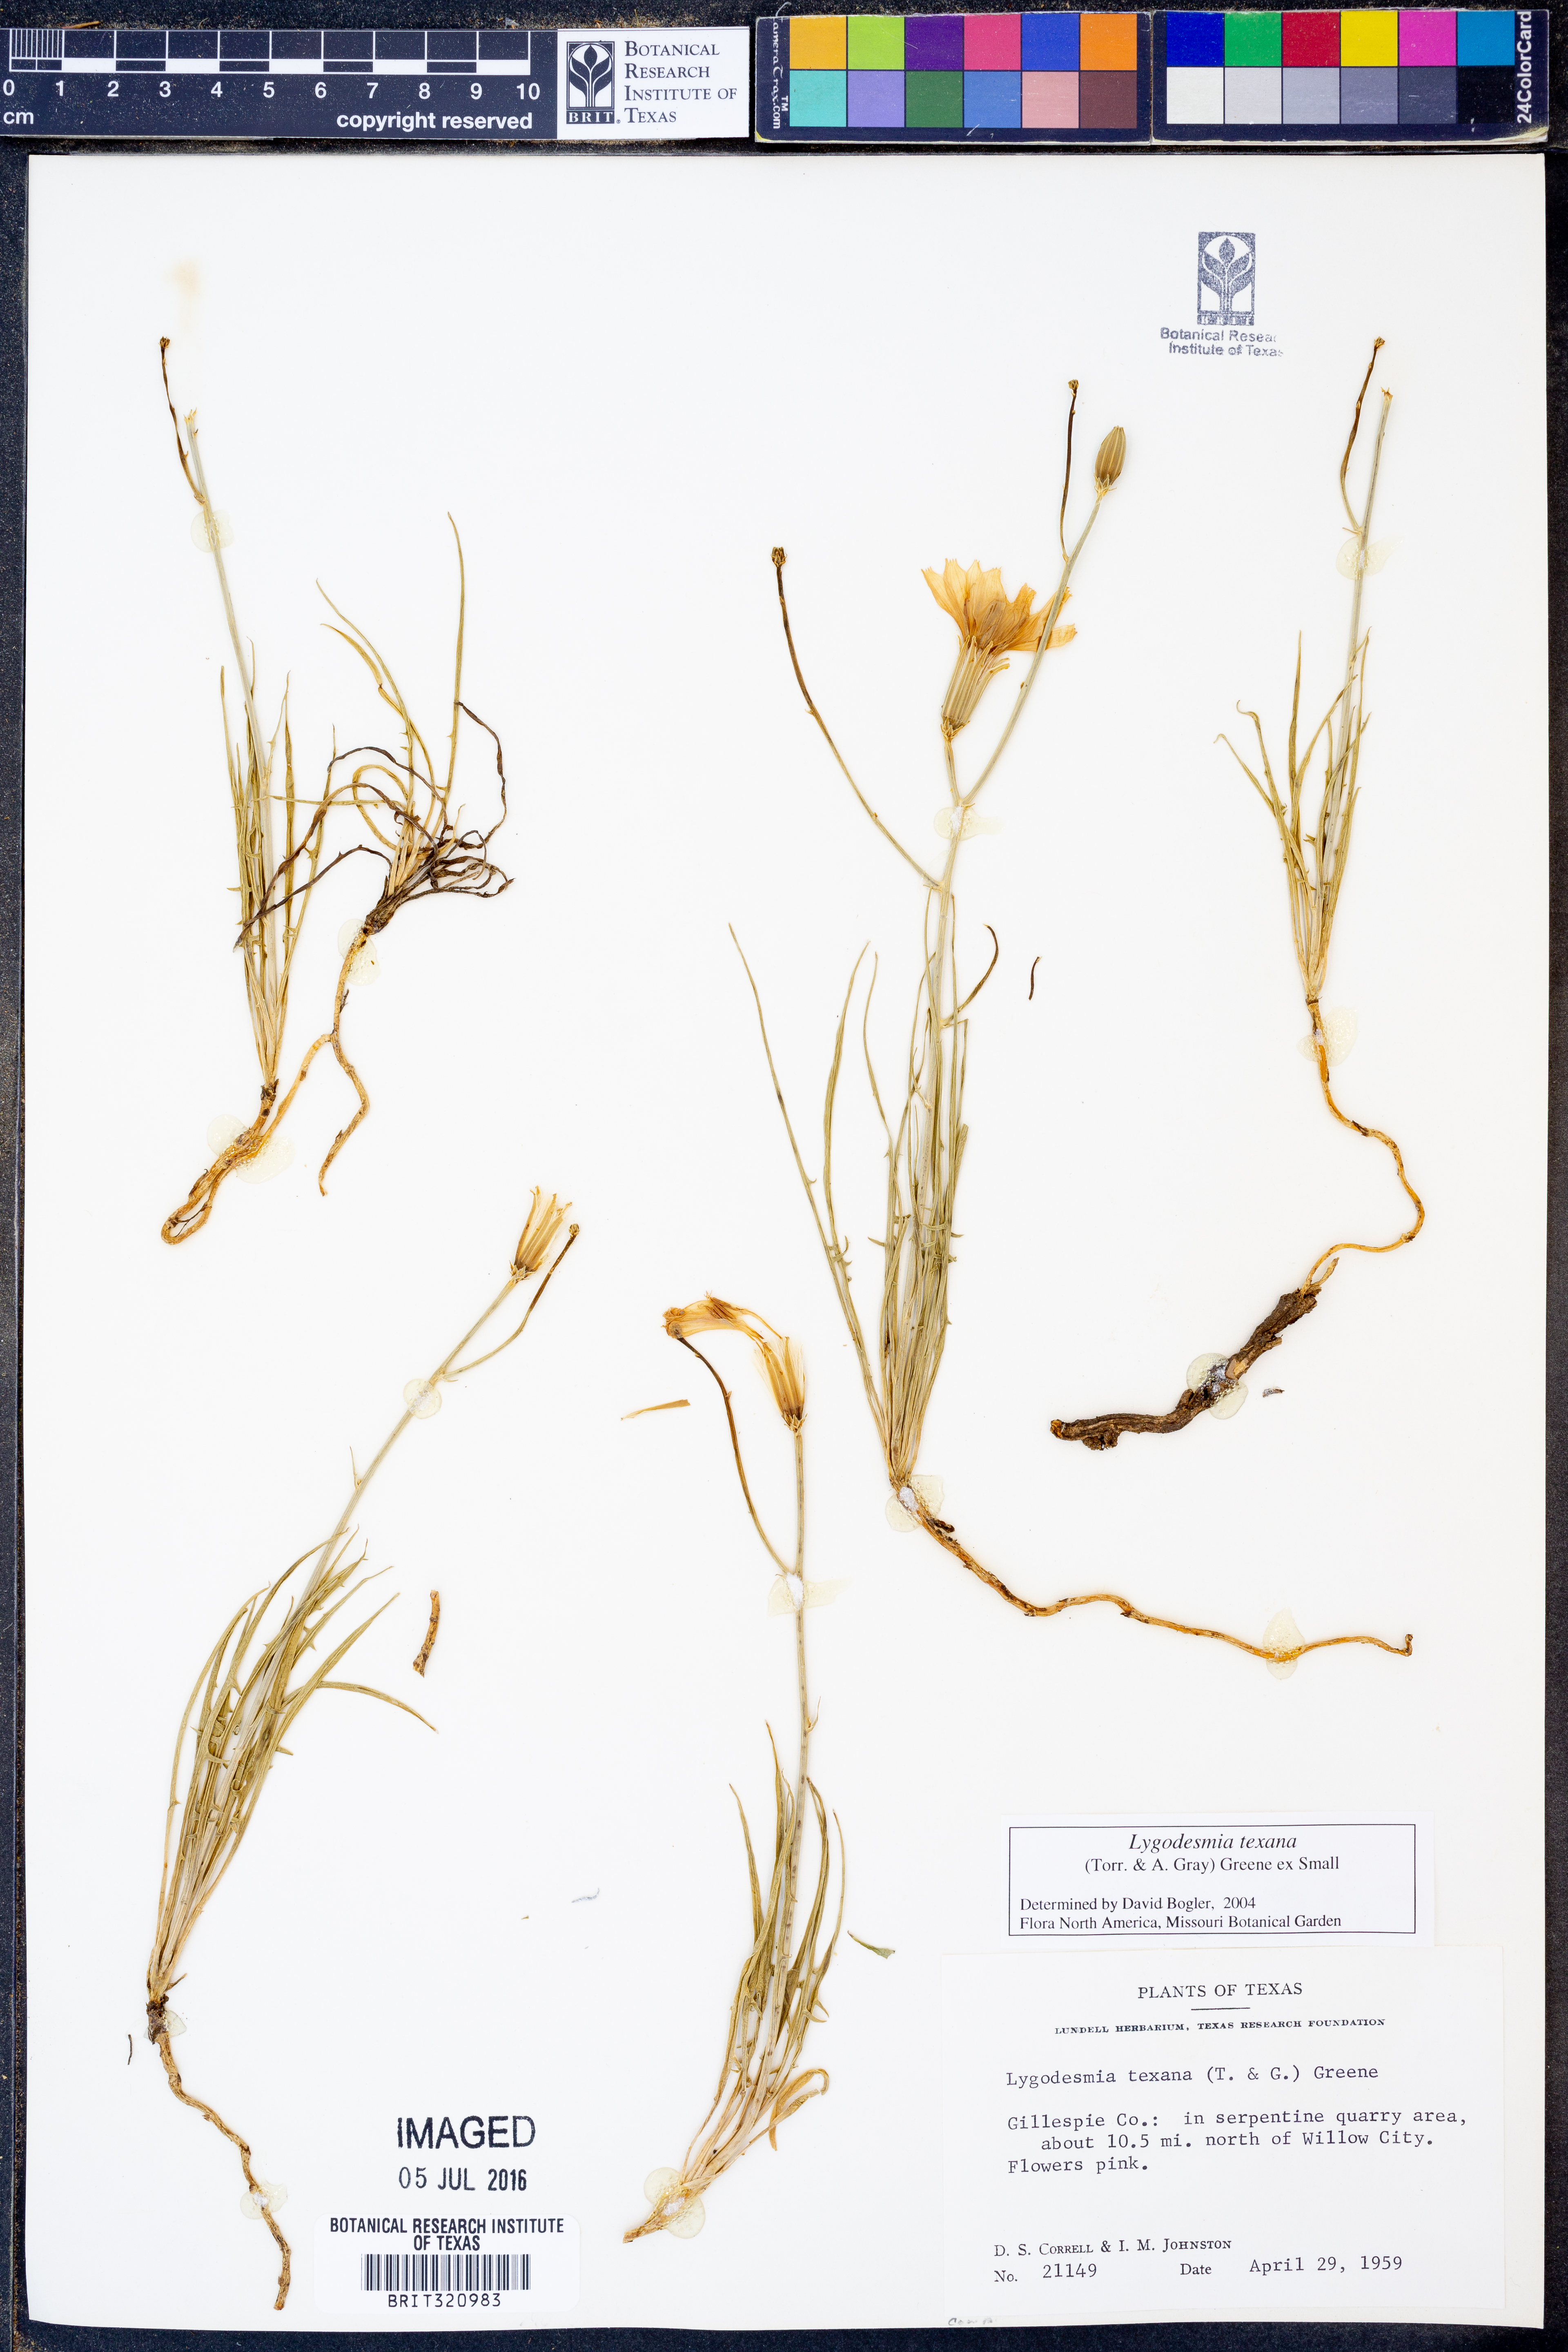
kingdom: Plantae
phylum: Tracheophyta
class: Magnoliopsida
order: Asterales
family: Asteraceae
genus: Lygodesmia
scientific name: Lygodesmia texana
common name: Texas skeleton-plant
